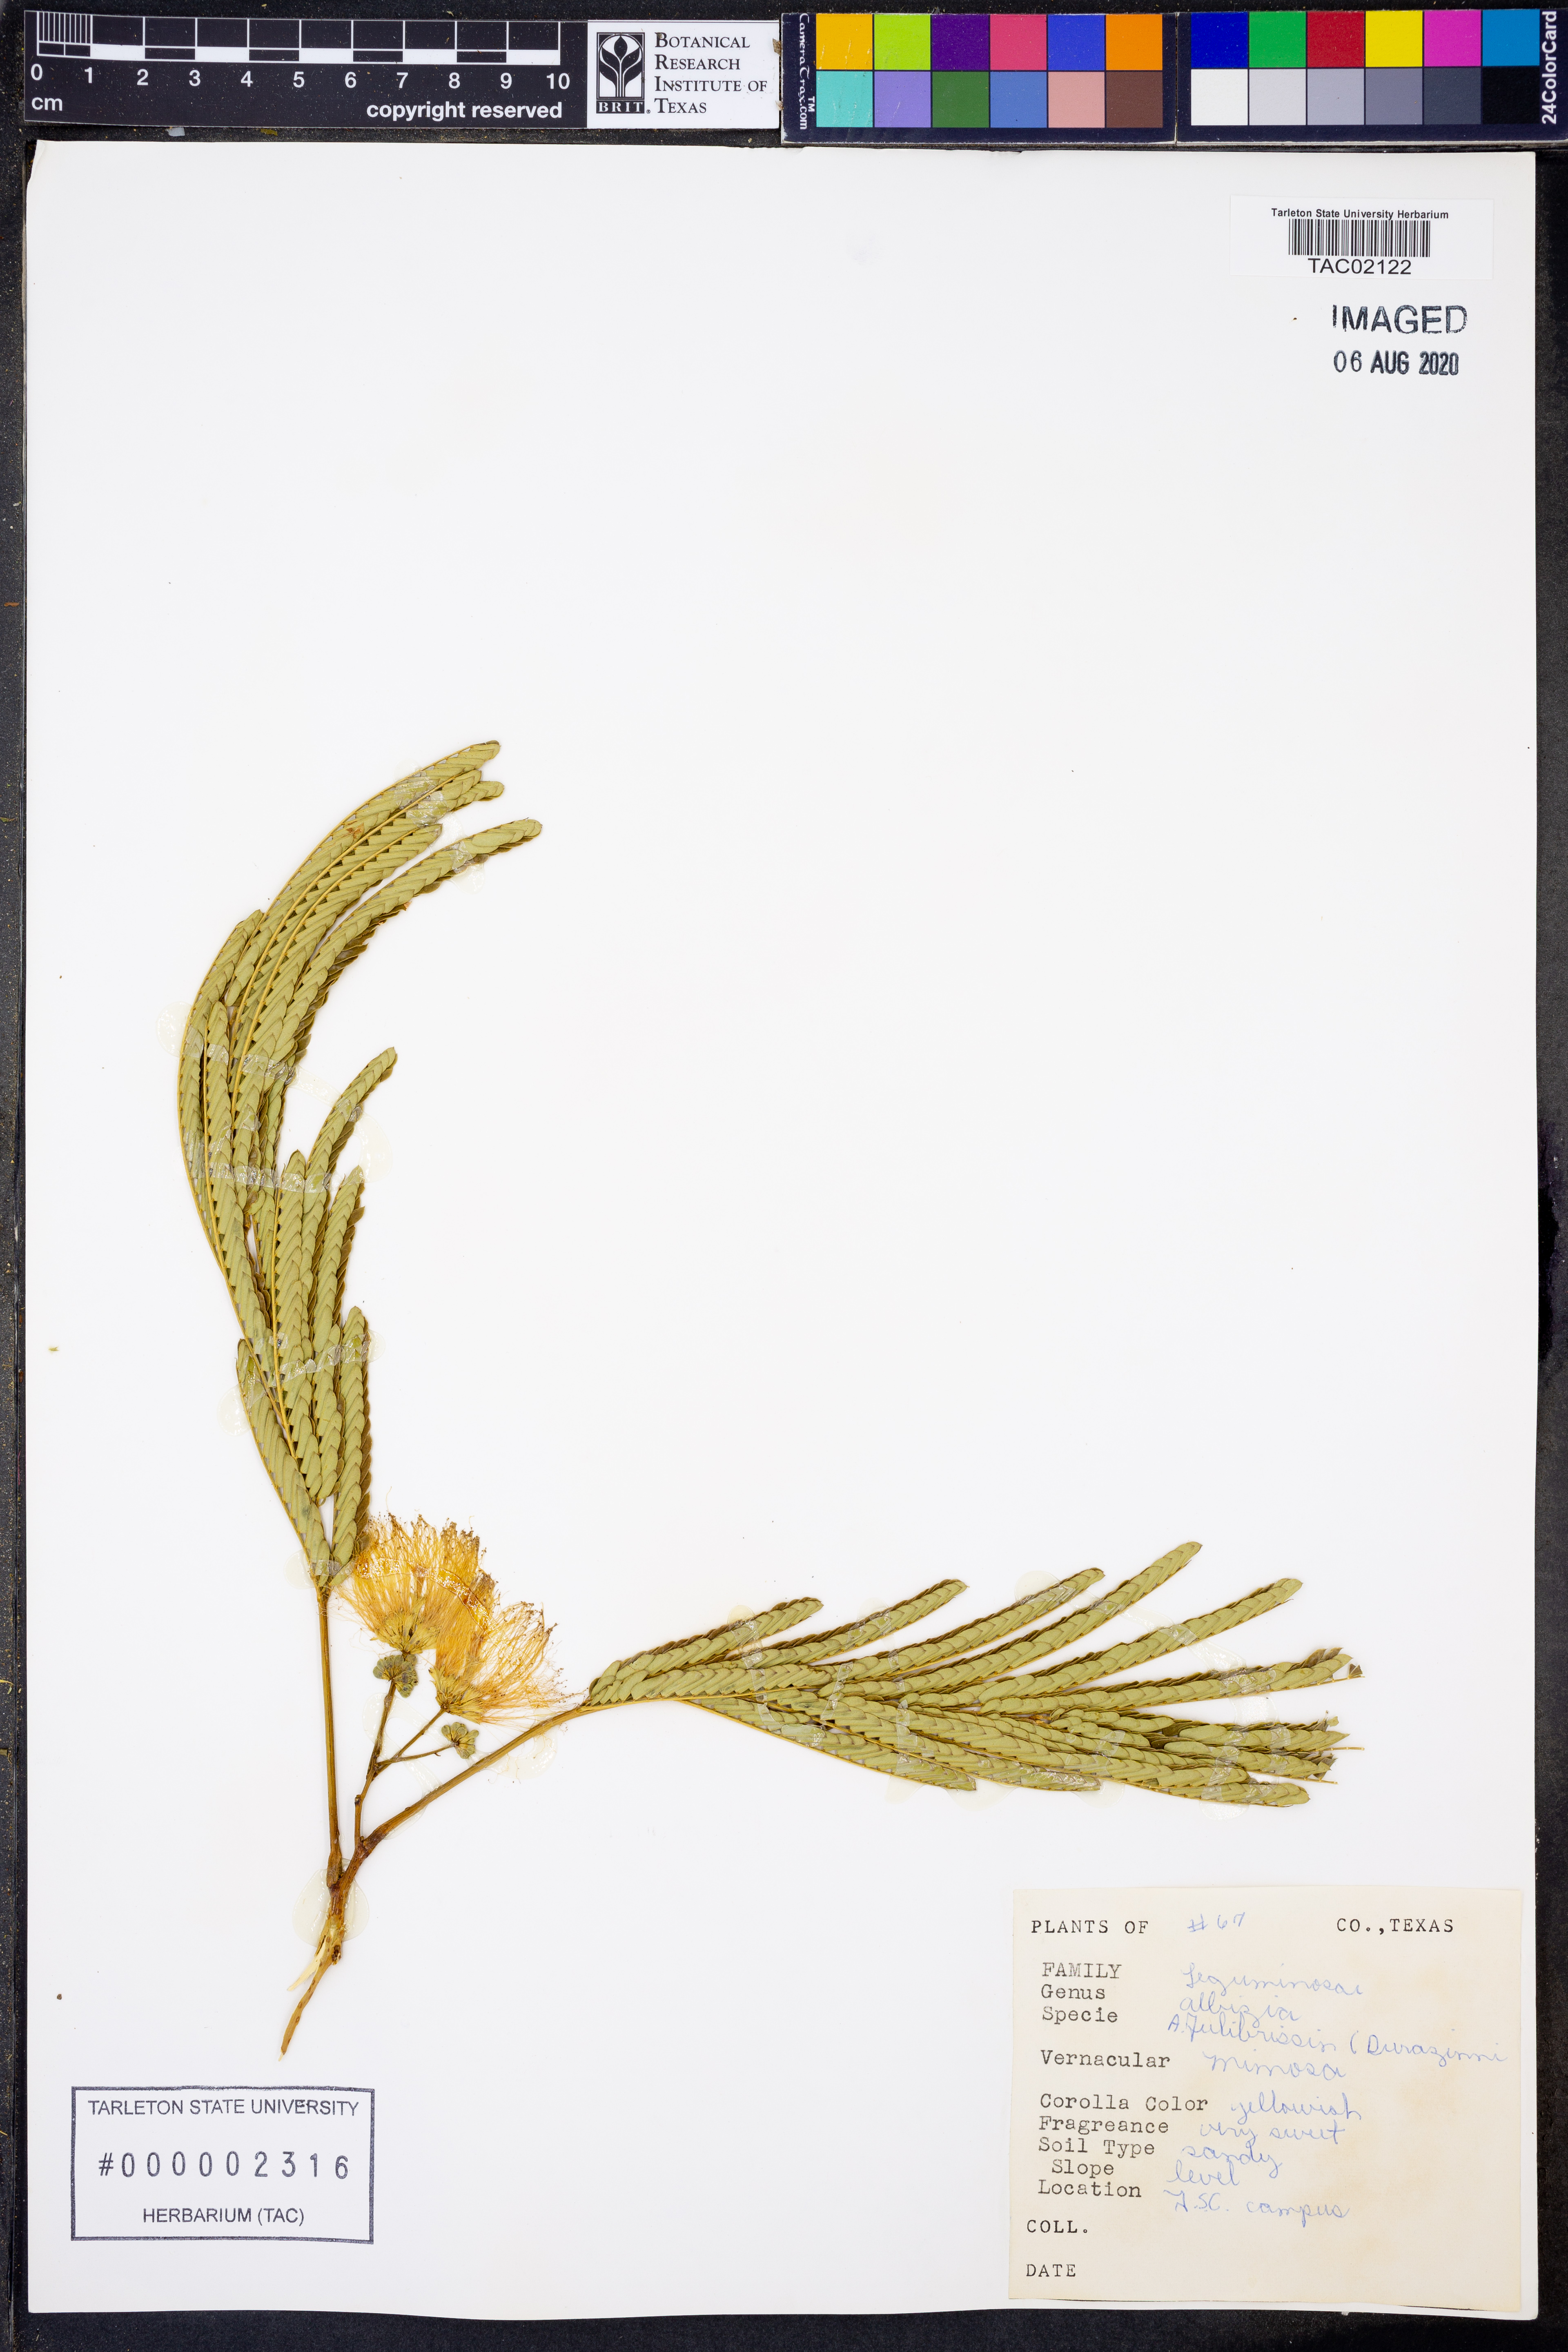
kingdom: Plantae
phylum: Tracheophyta
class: Magnoliopsida
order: Fabales
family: Fabaceae
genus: Albizia
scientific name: Albizia julibrissin
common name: Silktree
